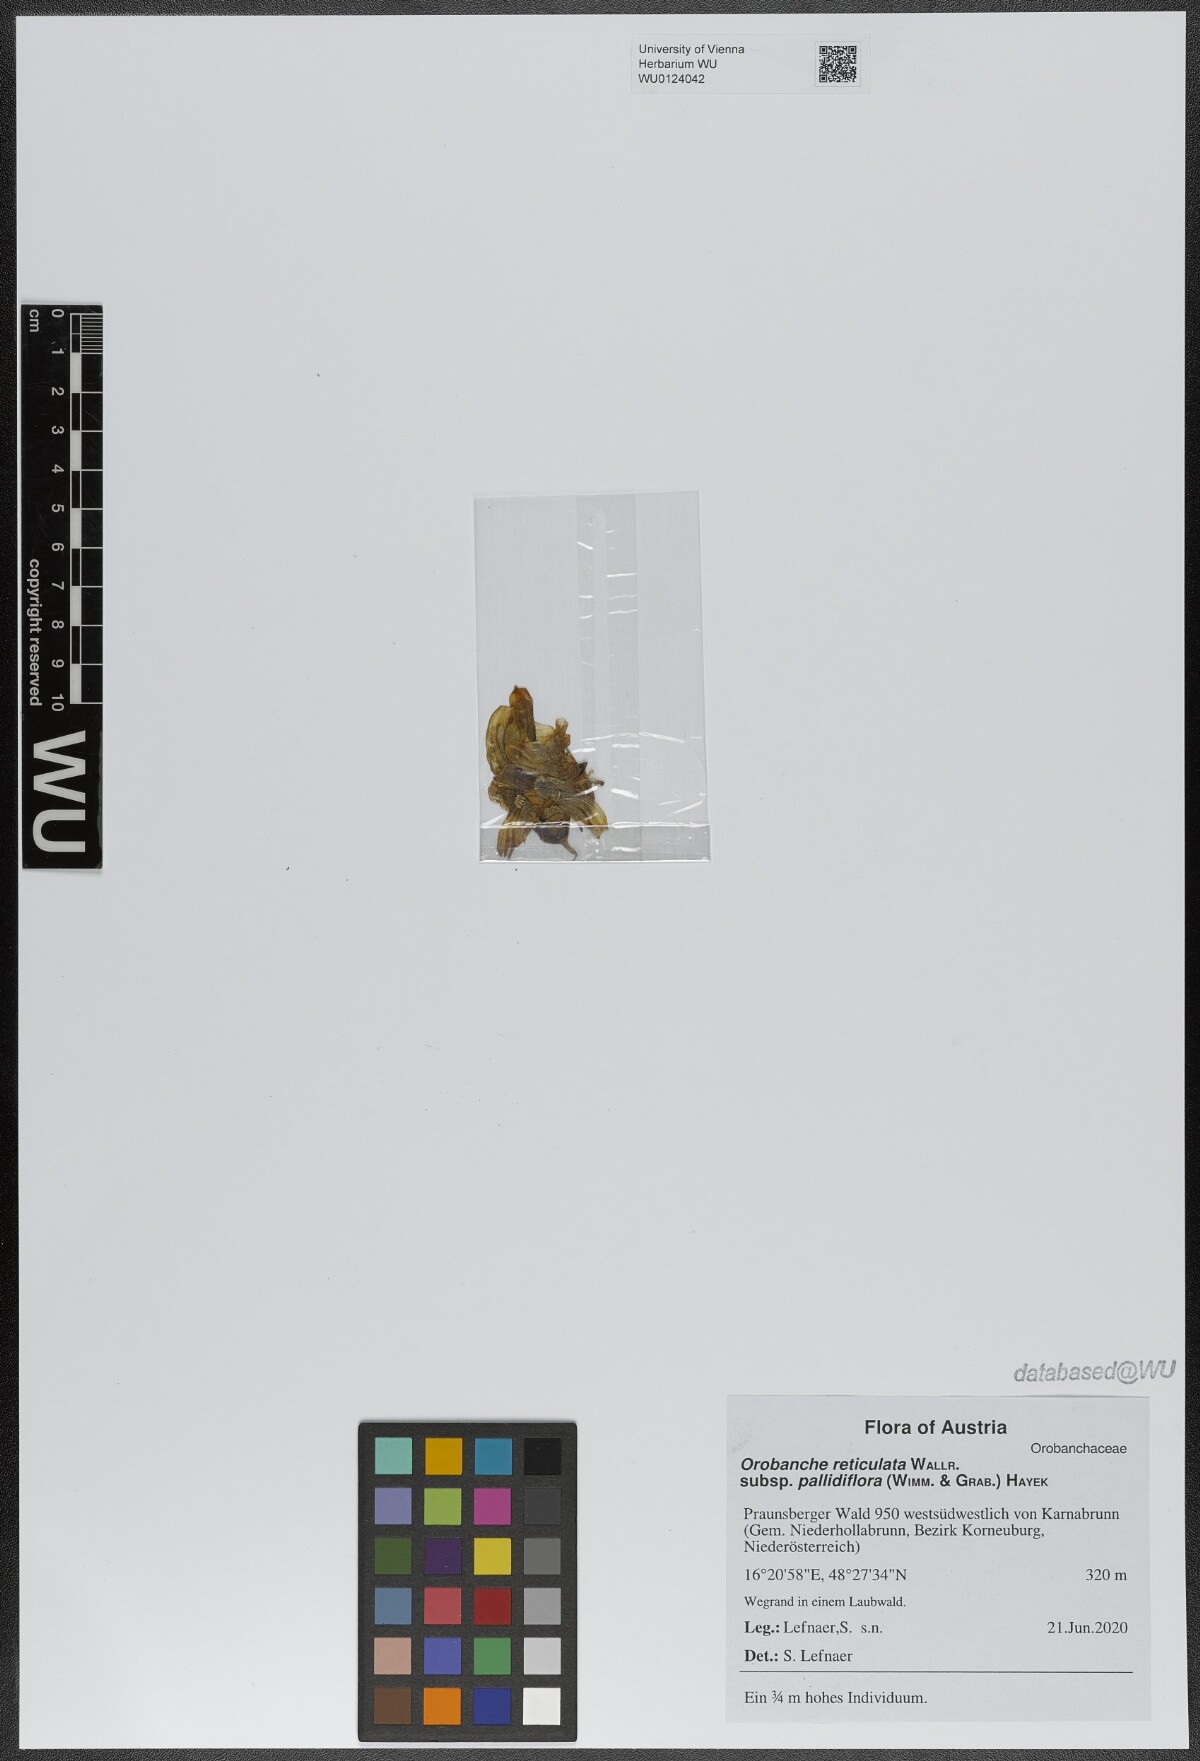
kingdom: Plantae
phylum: Tracheophyta
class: Magnoliopsida
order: Lamiales
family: Orobanchaceae
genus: Orobanche
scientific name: Orobanche reticulata
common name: Thistle broomrape
